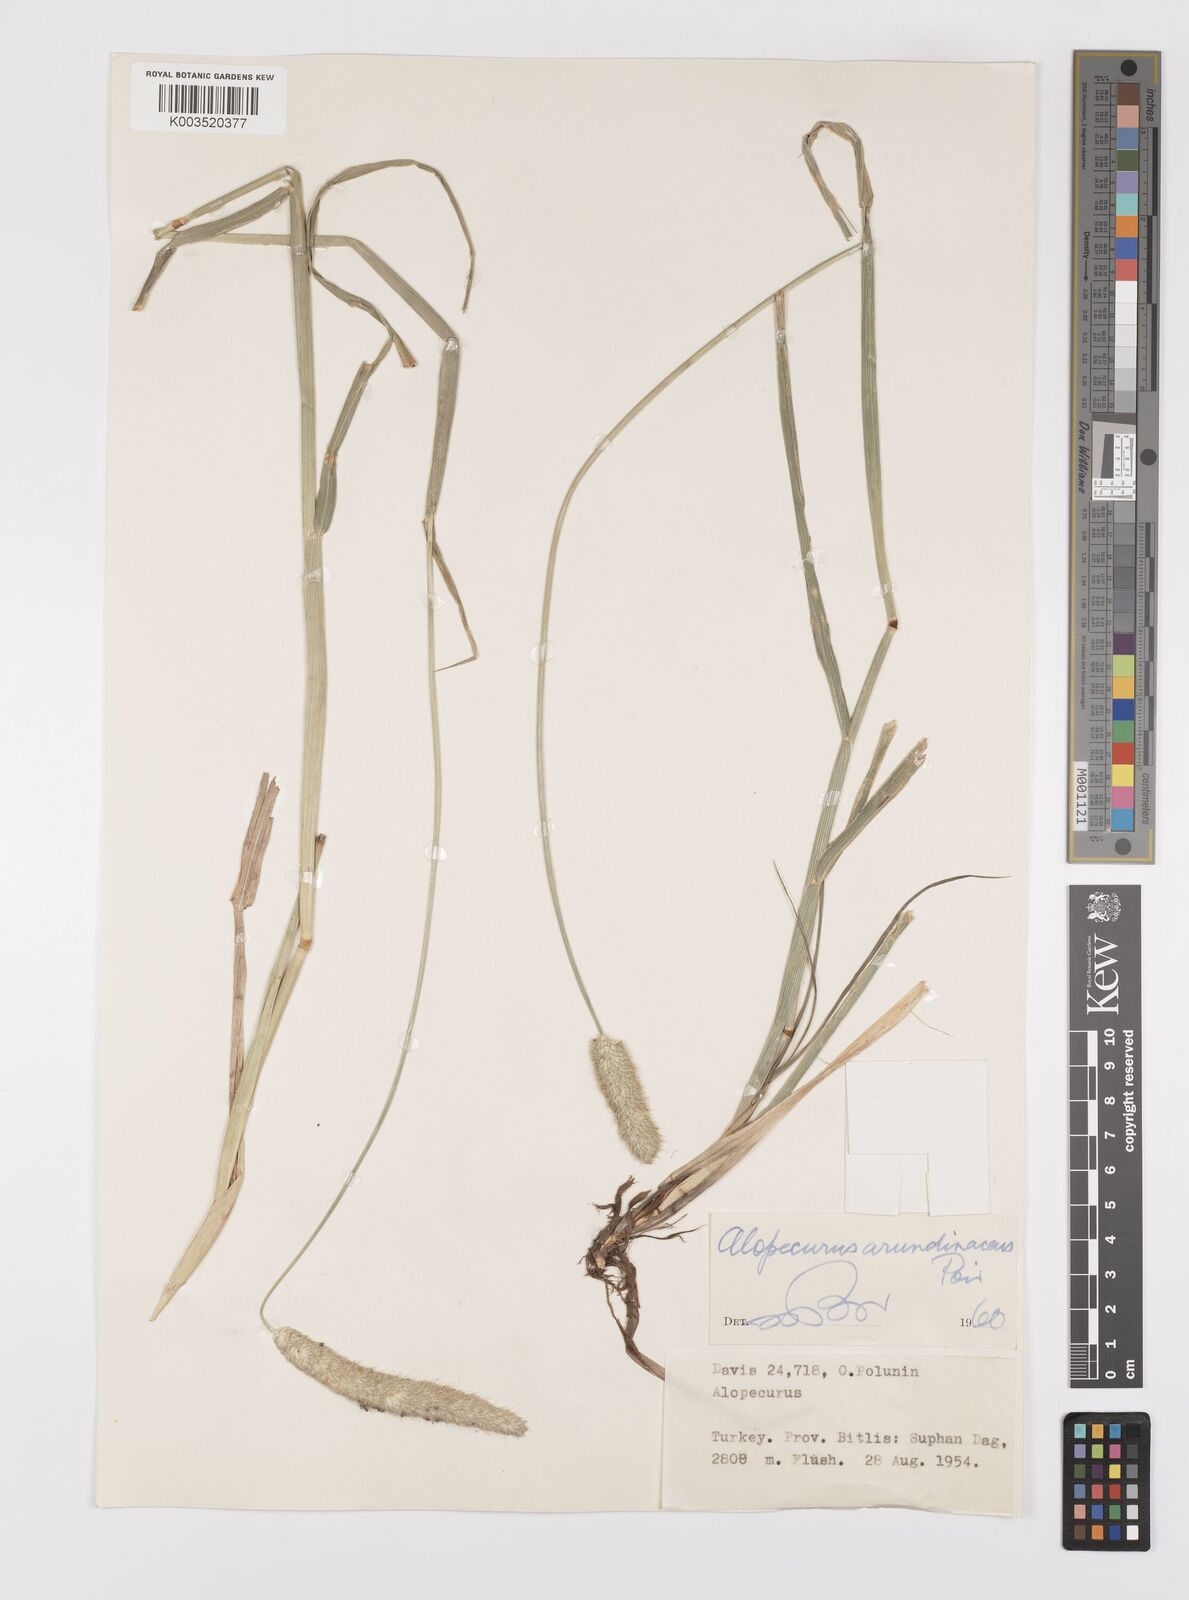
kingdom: Plantae
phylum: Tracheophyta
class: Liliopsida
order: Poales
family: Poaceae
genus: Alopecurus
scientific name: Alopecurus arundinaceus
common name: Creeping meadow foxtail
